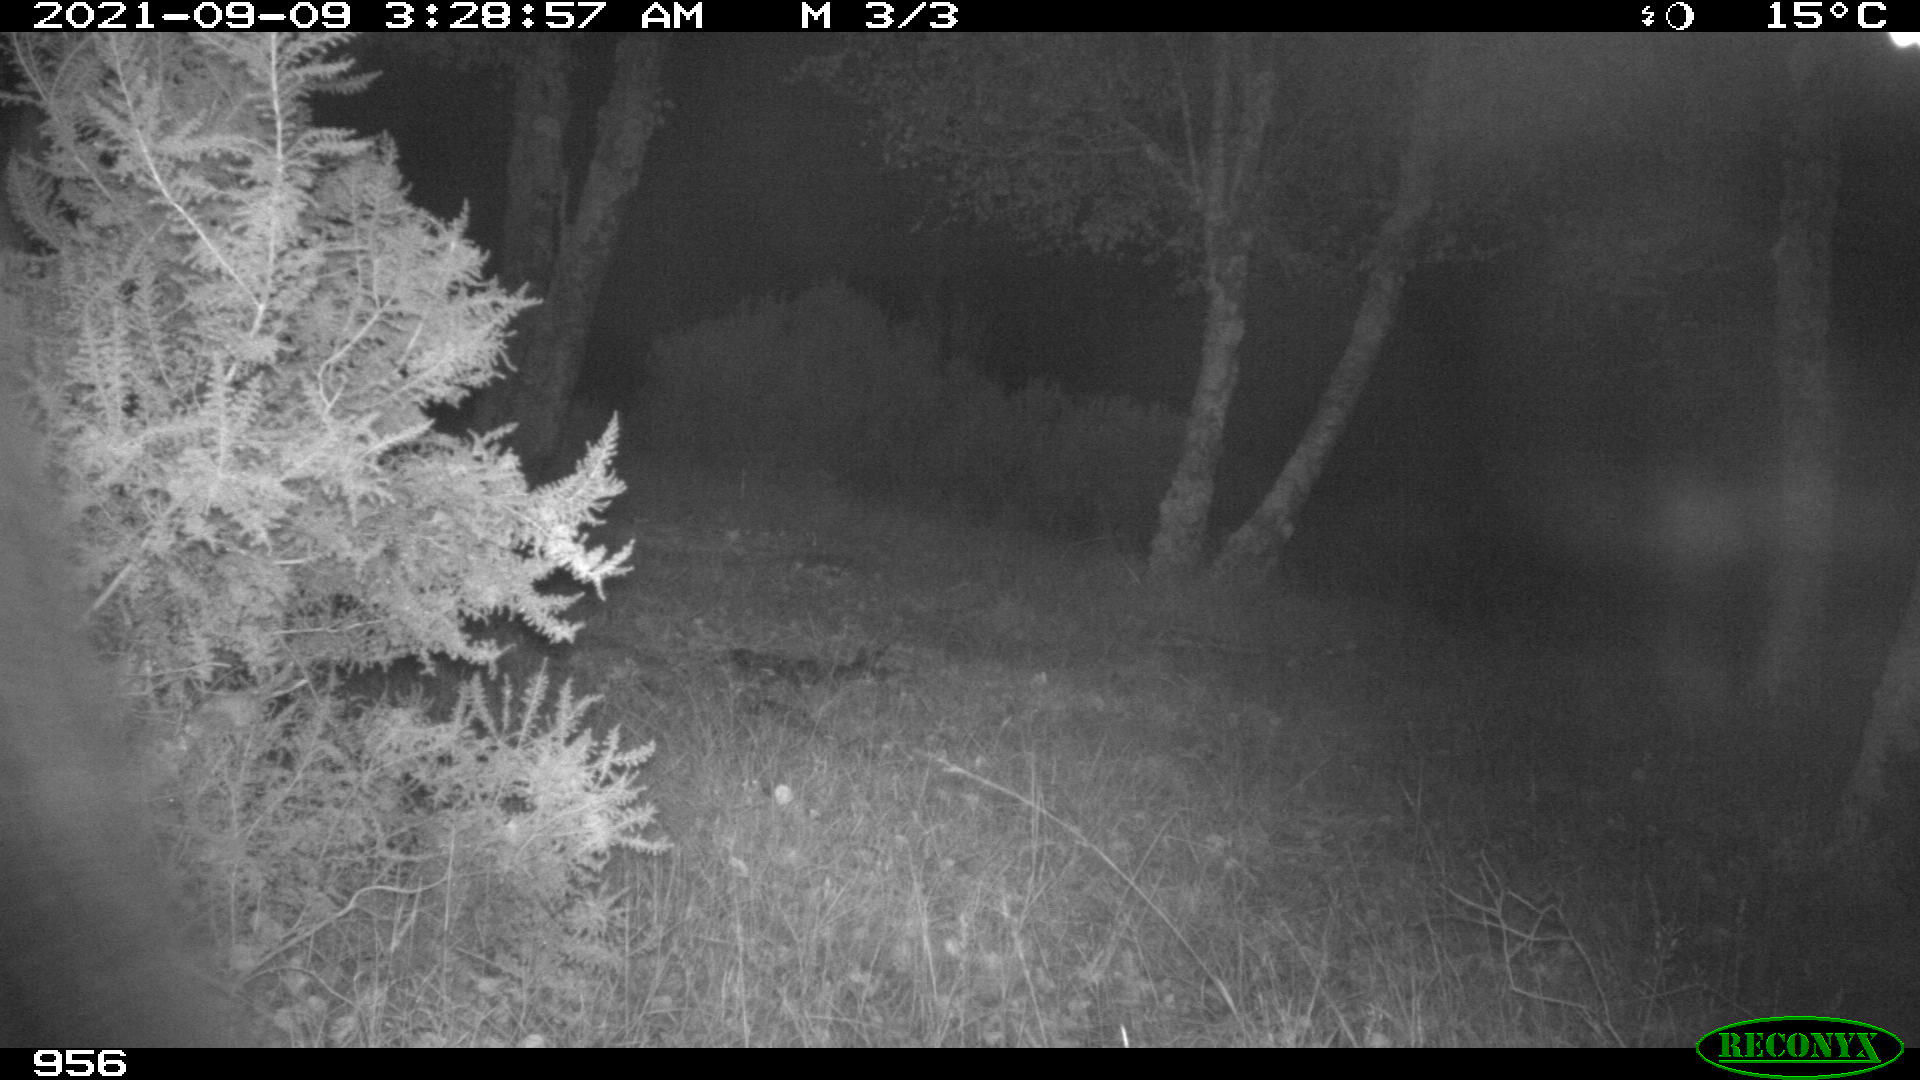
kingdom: Animalia
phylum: Chordata
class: Mammalia
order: Perissodactyla
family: Equidae
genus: Equus
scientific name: Equus caballus
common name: Horse
